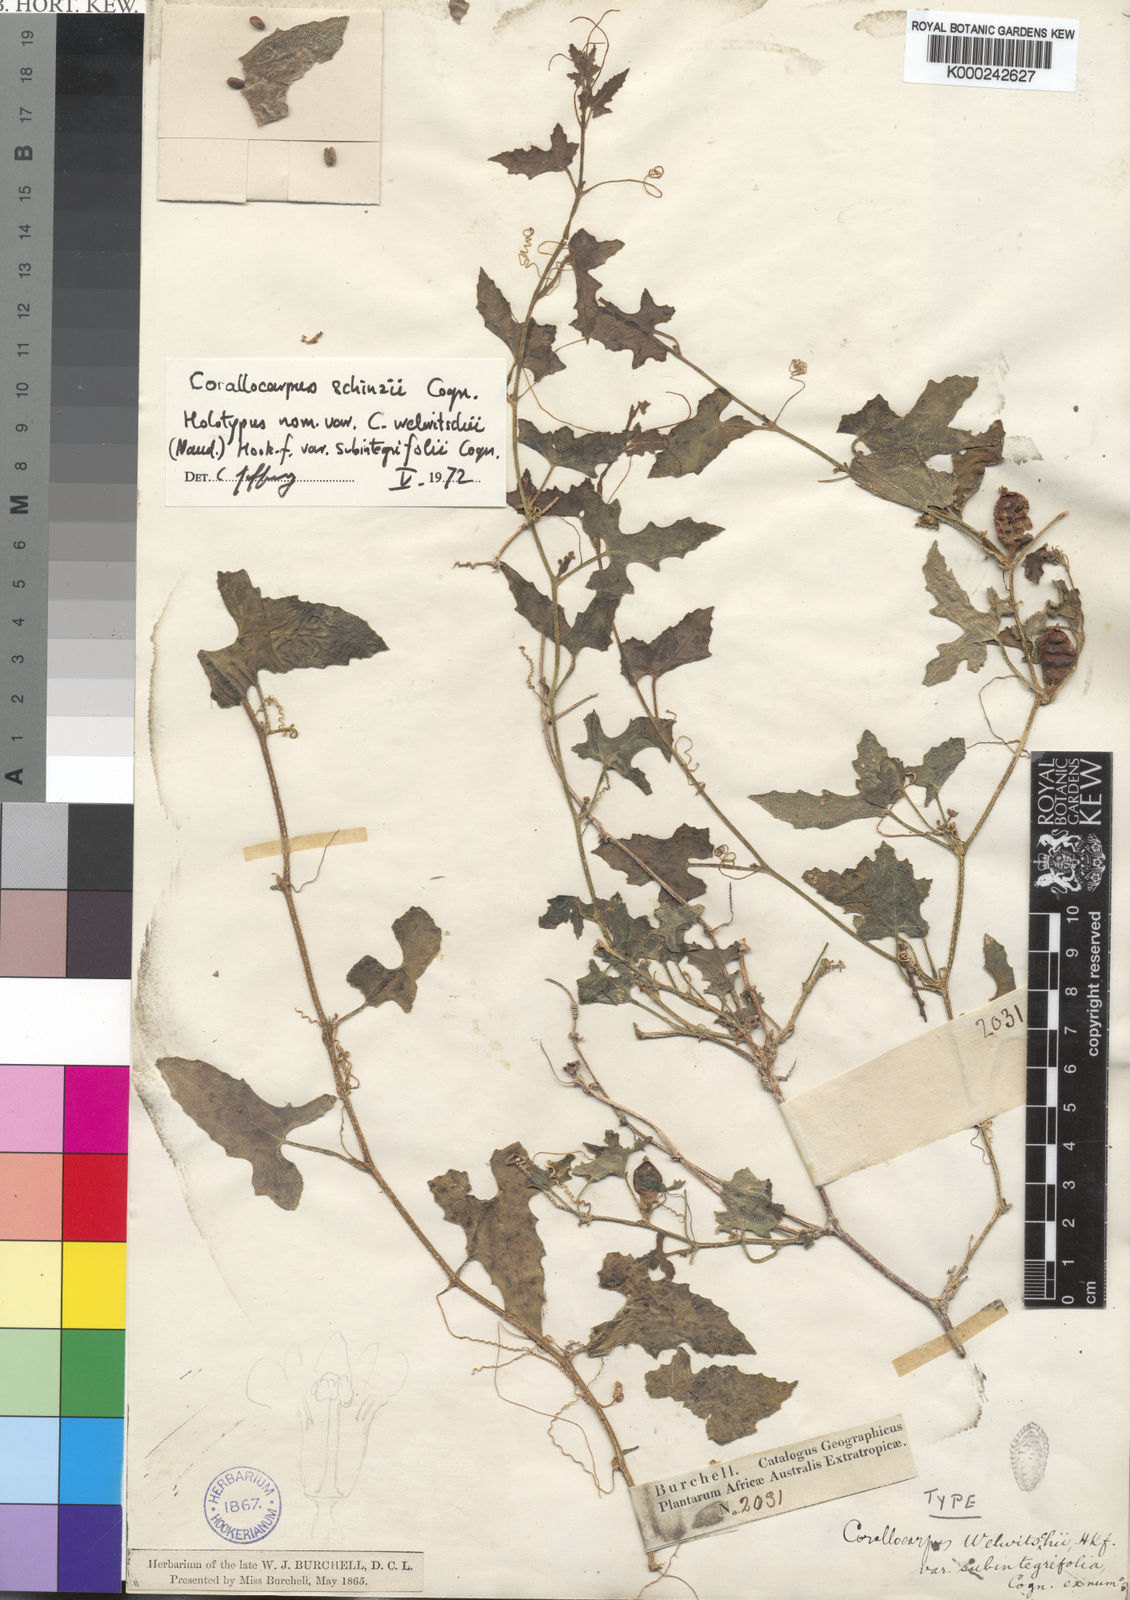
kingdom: Plantae
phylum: Tracheophyta
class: Magnoliopsida
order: Cucurbitales
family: Cucurbitaceae
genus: Corallocarpus
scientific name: Corallocarpus
